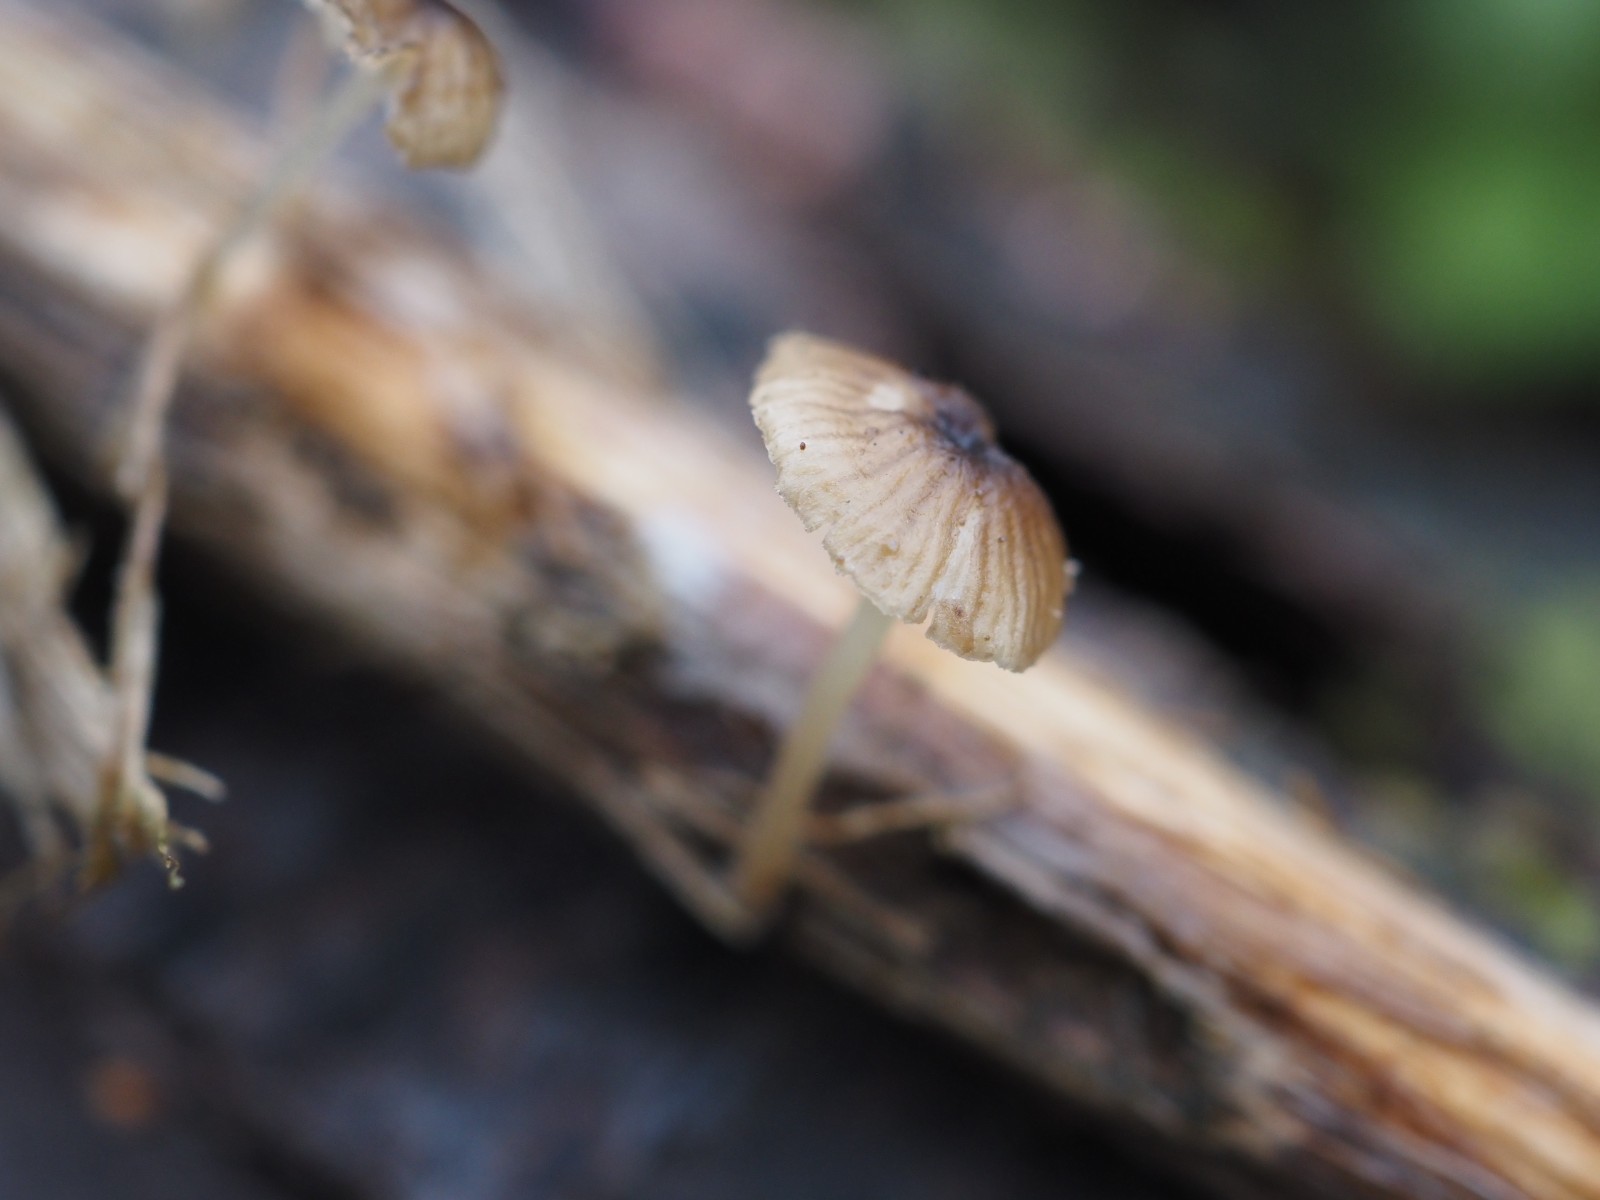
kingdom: Fungi
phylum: Basidiomycota
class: Agaricomycetes
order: Agaricales
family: Porotheleaceae
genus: Phloeomana
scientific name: Phloeomana speirea
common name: kvist-huesvamp
